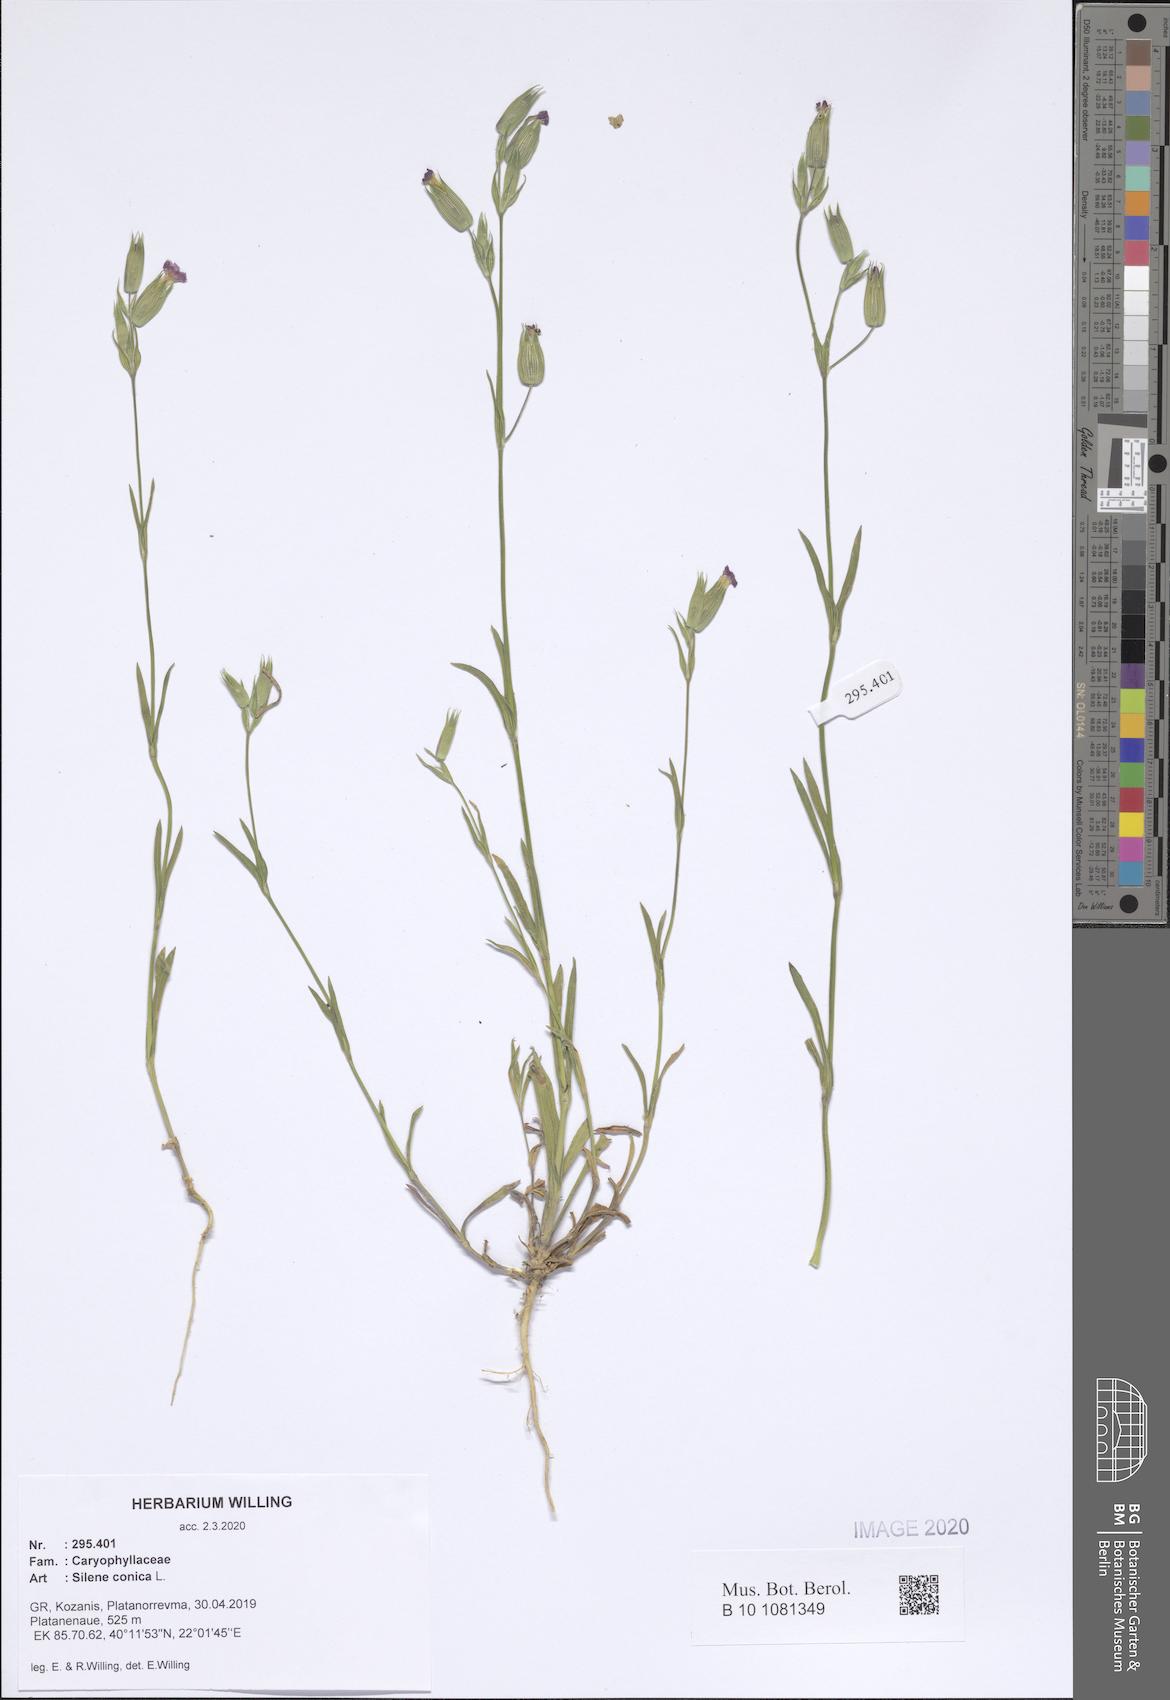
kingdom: Plantae
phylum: Tracheophyta
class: Magnoliopsida
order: Caryophyllales
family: Caryophyllaceae
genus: Silene
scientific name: Silene conica
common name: Sand catchfly
